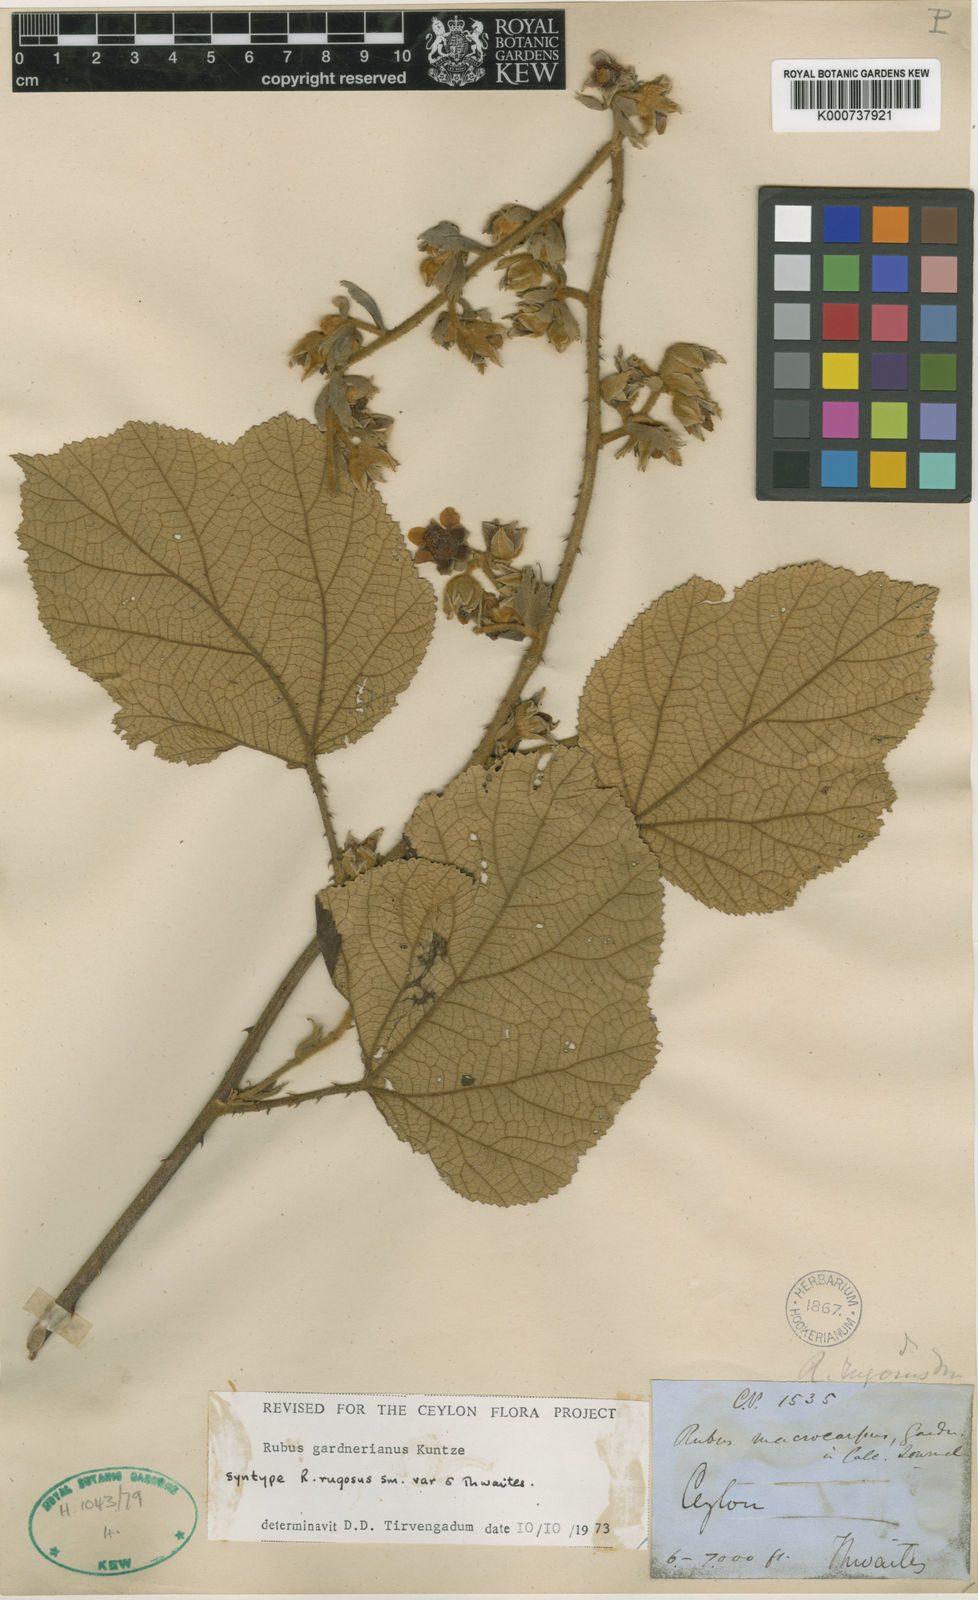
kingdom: Plantae
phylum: Tracheophyta
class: Magnoliopsida
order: Rosales
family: Rosaceae
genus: Rubus
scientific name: Rubus rugosus
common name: Himalayan blackberry
